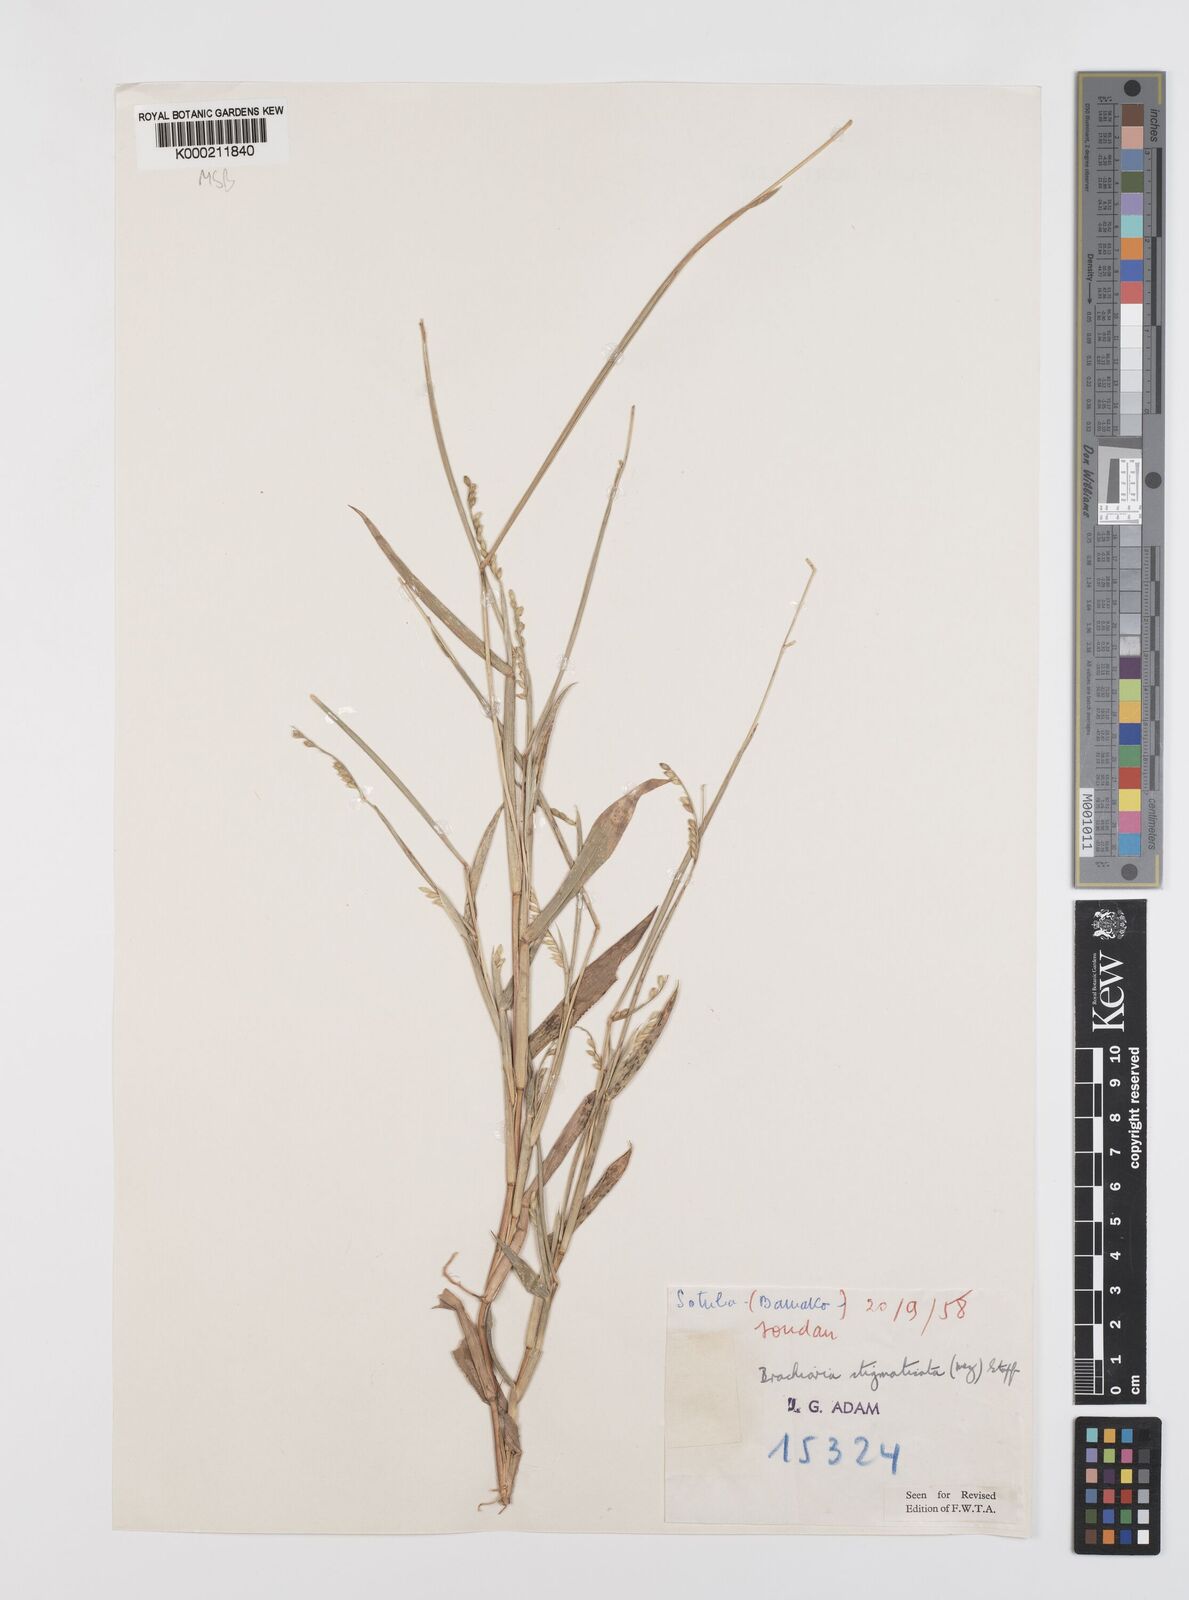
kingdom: Plantae
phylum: Tracheophyta
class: Liliopsida
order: Poales
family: Poaceae
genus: Urochloa
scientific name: Urochloa stigmatisata
